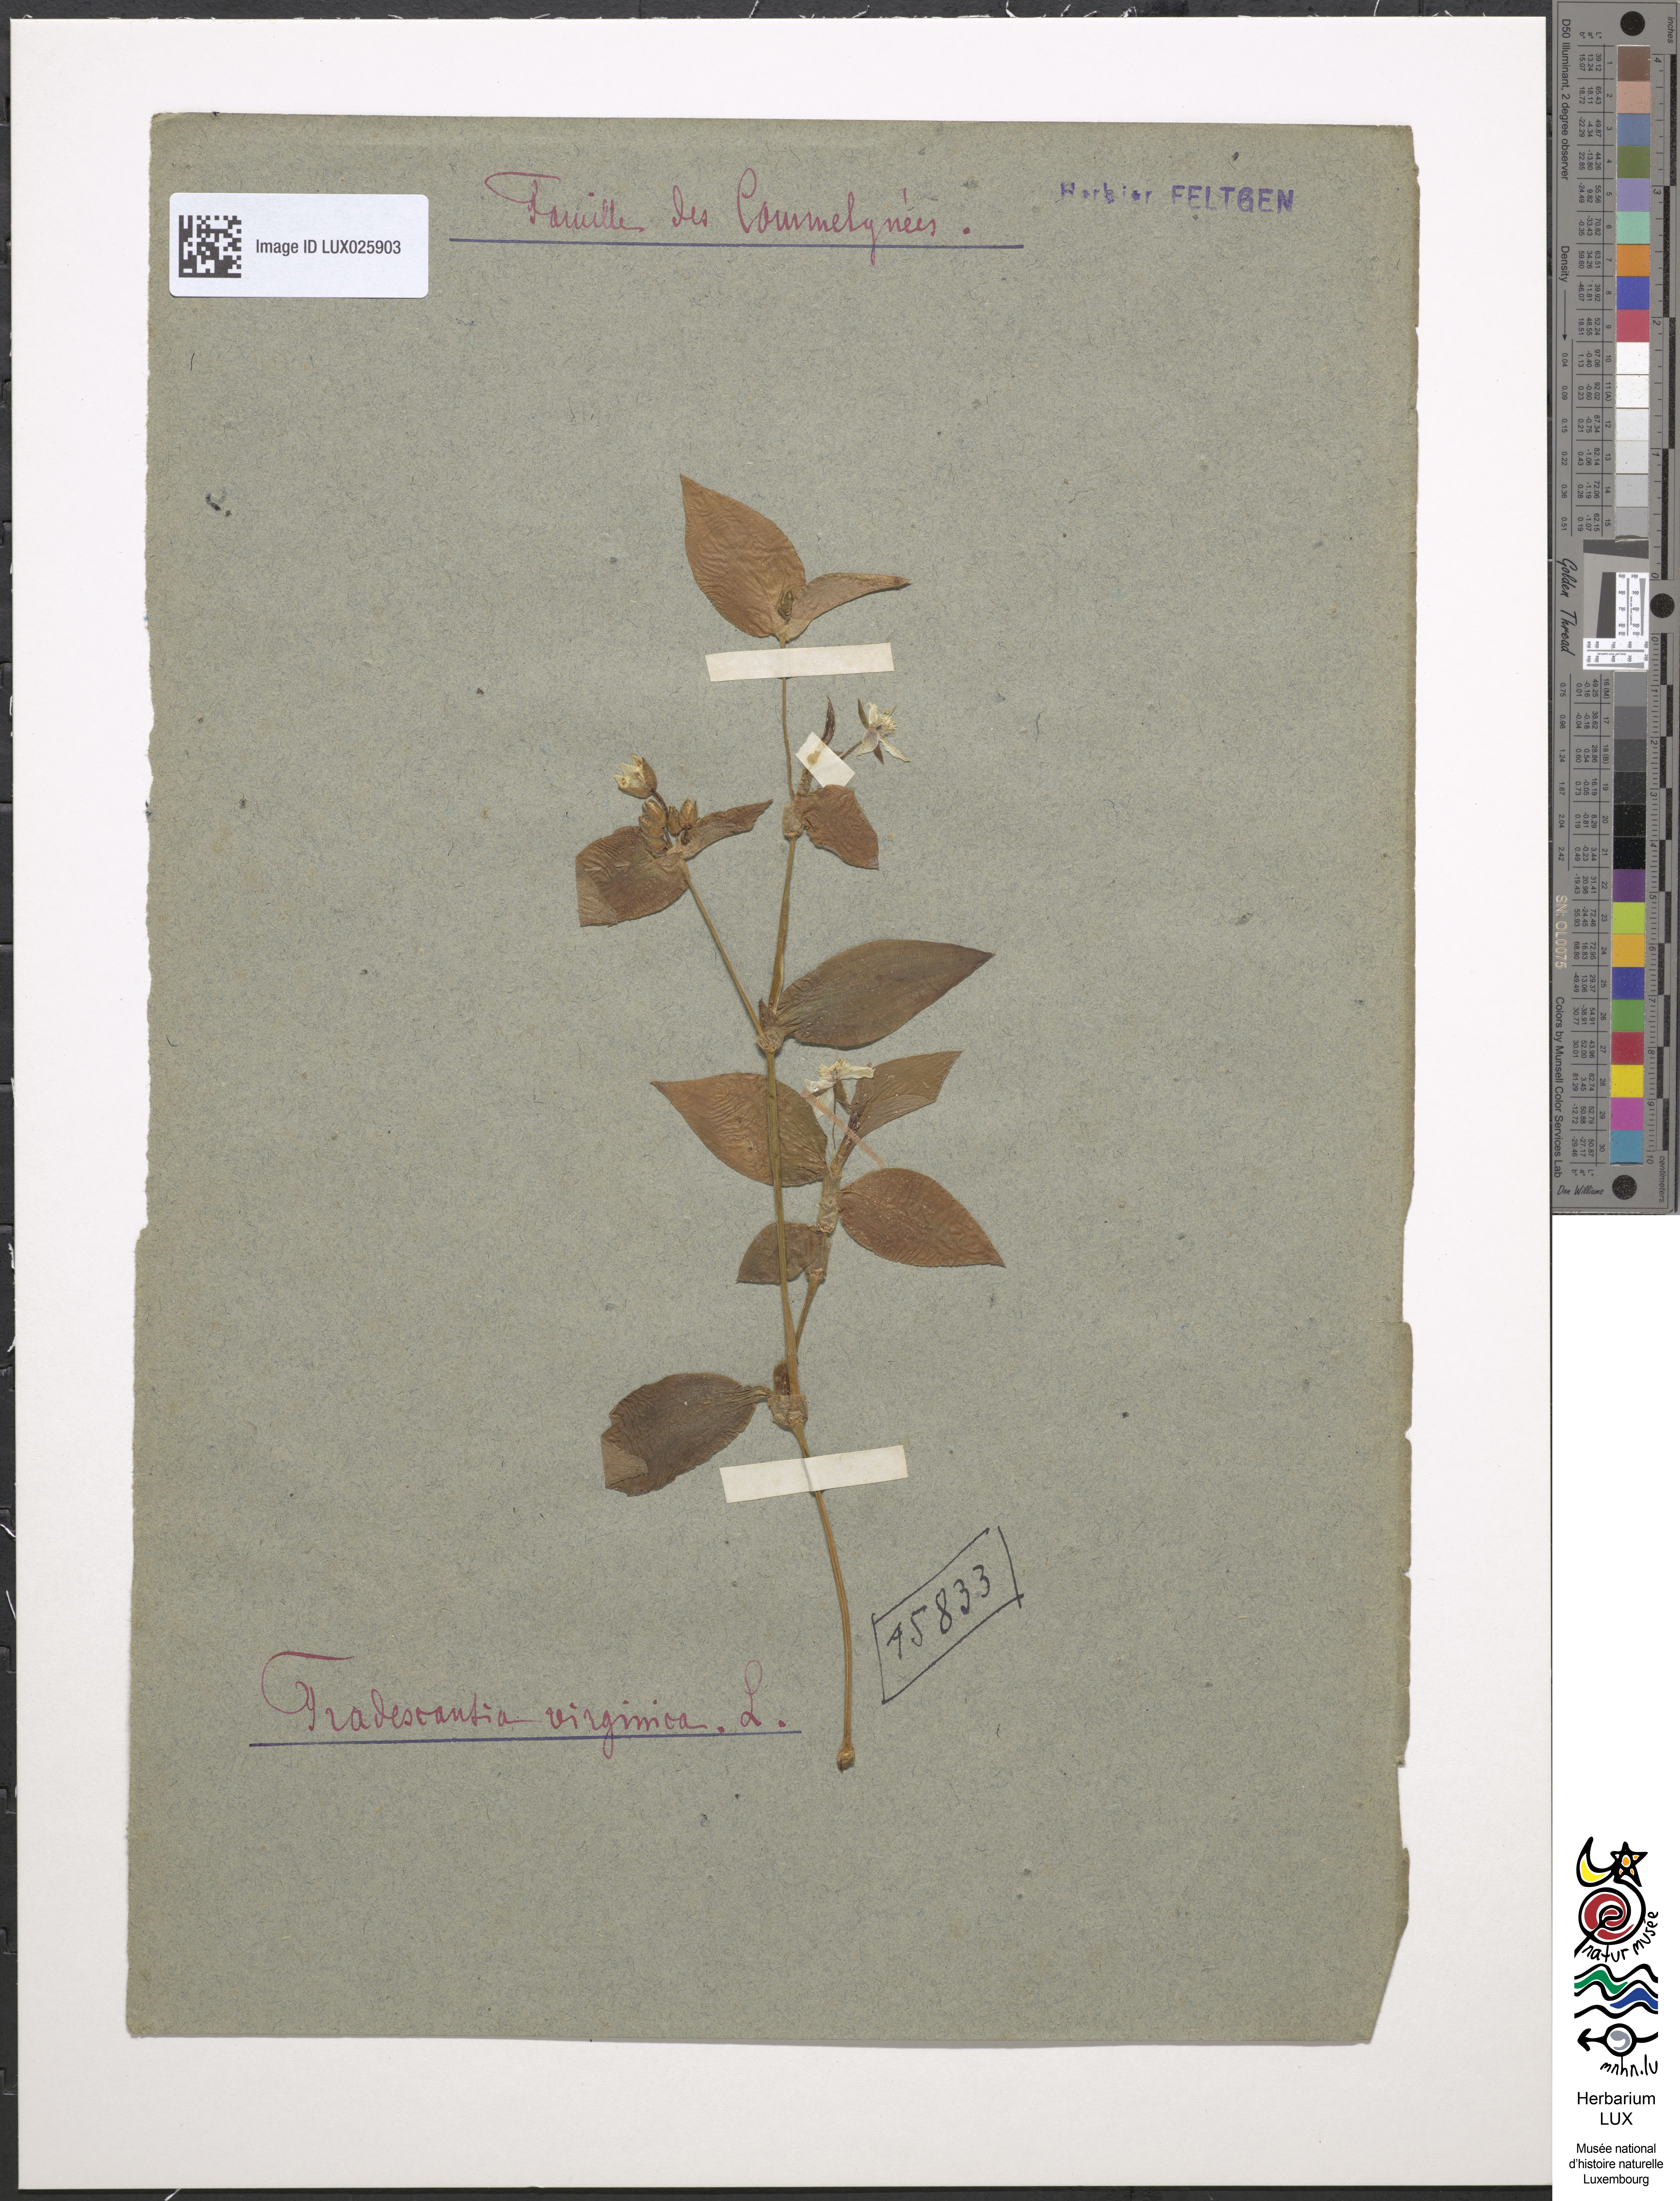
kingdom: Plantae
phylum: Tracheophyta
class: Liliopsida
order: Commelinales
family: Commelinaceae
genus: Tradescantia
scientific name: Tradescantia virginiana
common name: Spiderwort
